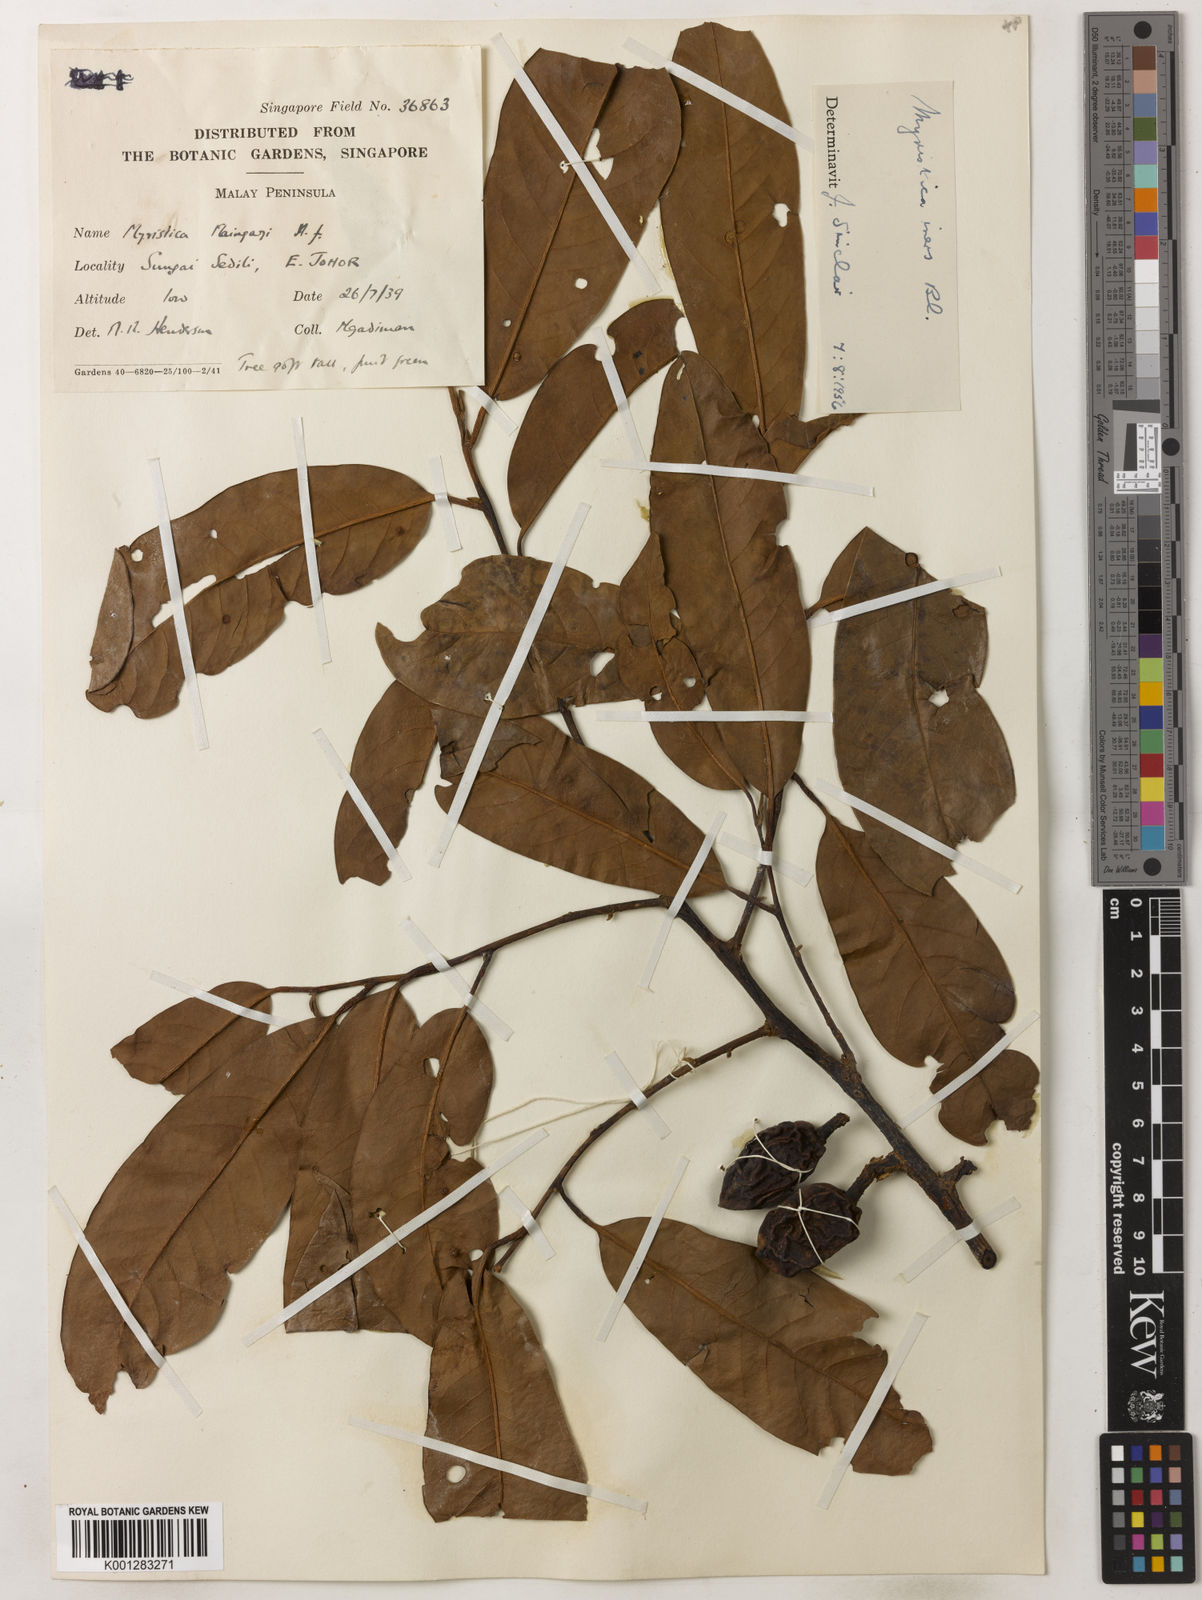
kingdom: Plantae
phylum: Tracheophyta
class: Magnoliopsida
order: Magnoliales
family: Myristicaceae
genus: Myristica
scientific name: Myristica iners
